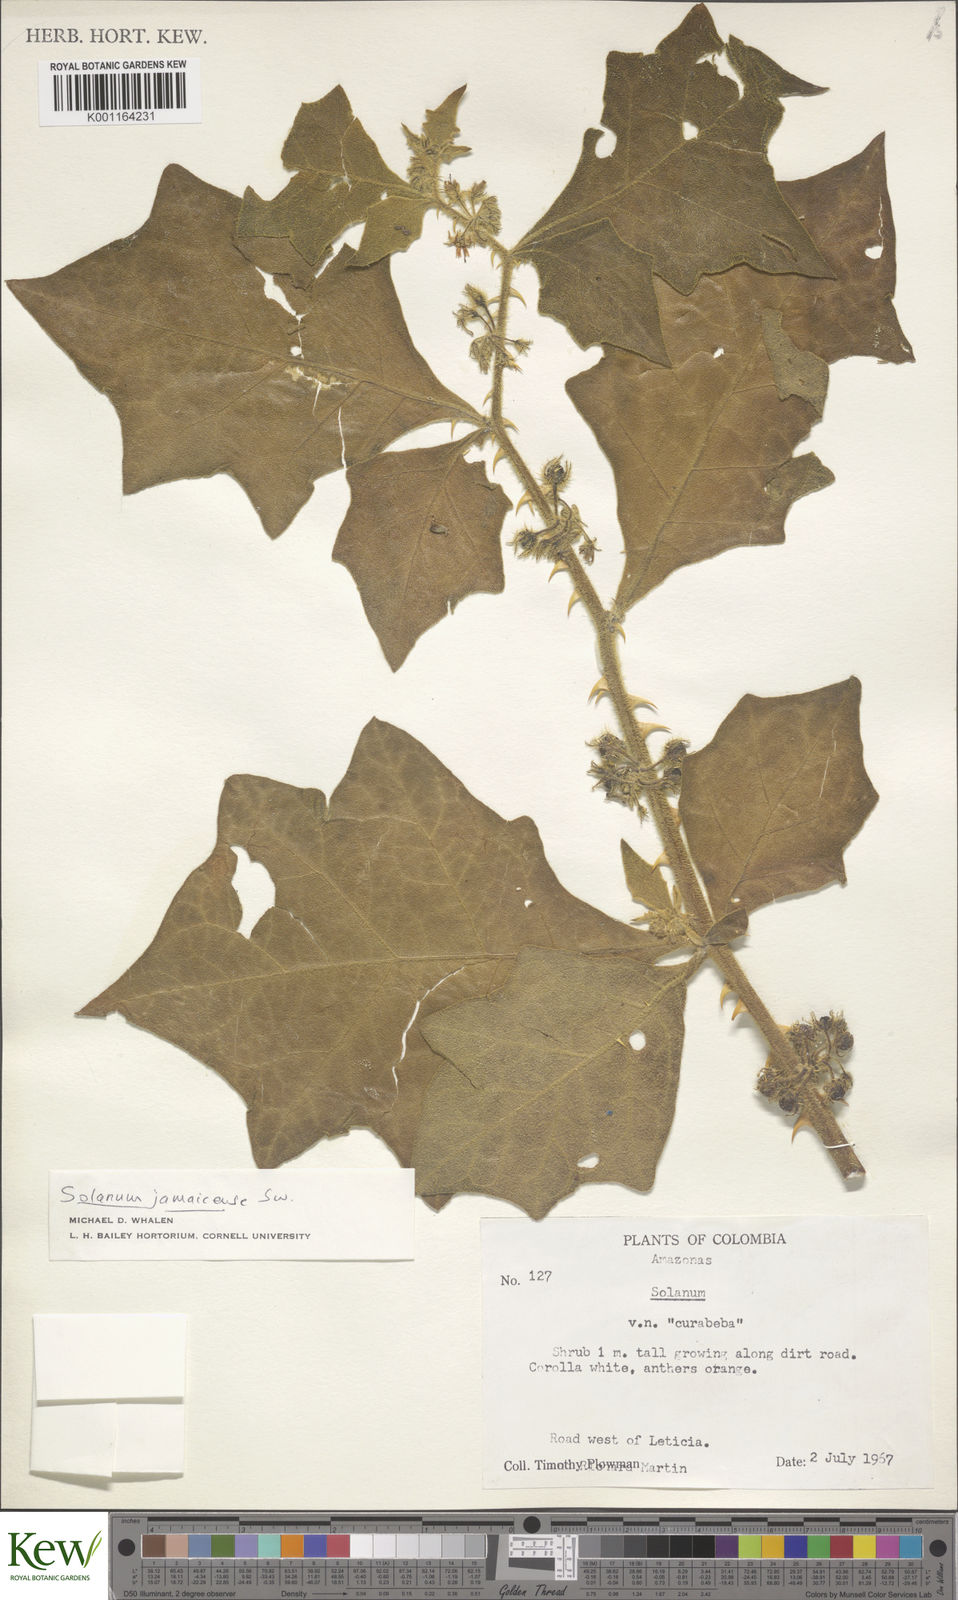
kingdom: Plantae
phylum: Tracheophyta
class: Magnoliopsida
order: Solanales
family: Solanaceae
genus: Solanum
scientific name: Solanum jamaicense
